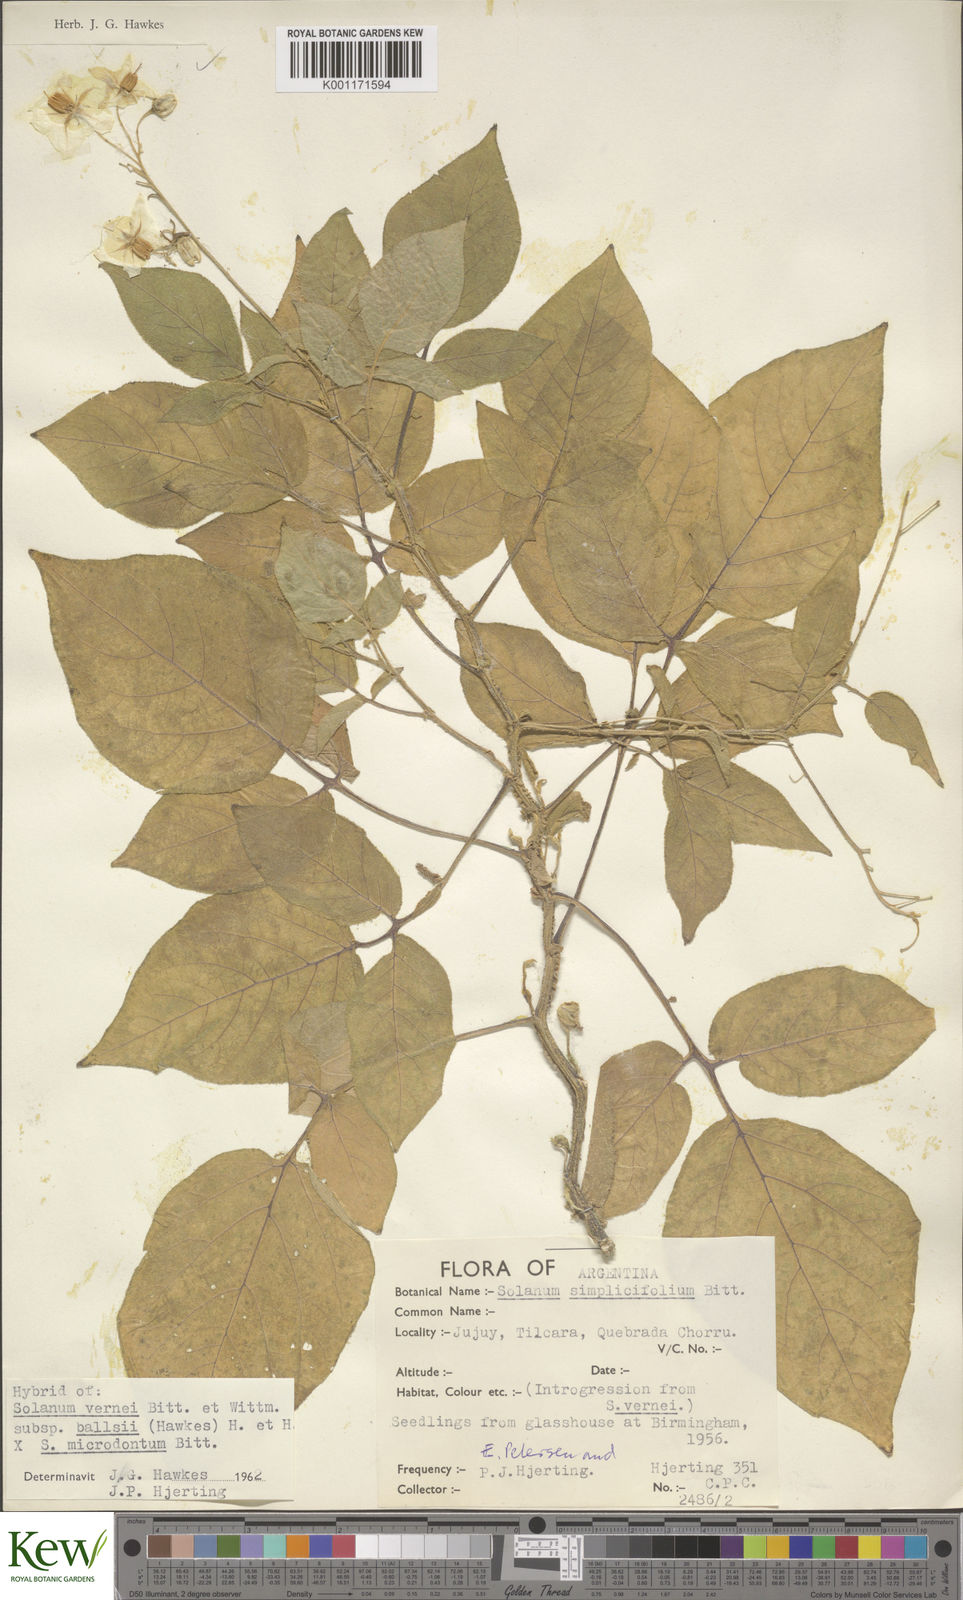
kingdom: Plantae
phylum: Tracheophyta
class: Magnoliopsida
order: Solanales
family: Solanaceae
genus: Solanum
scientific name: Solanum vernei
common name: Purple potato
